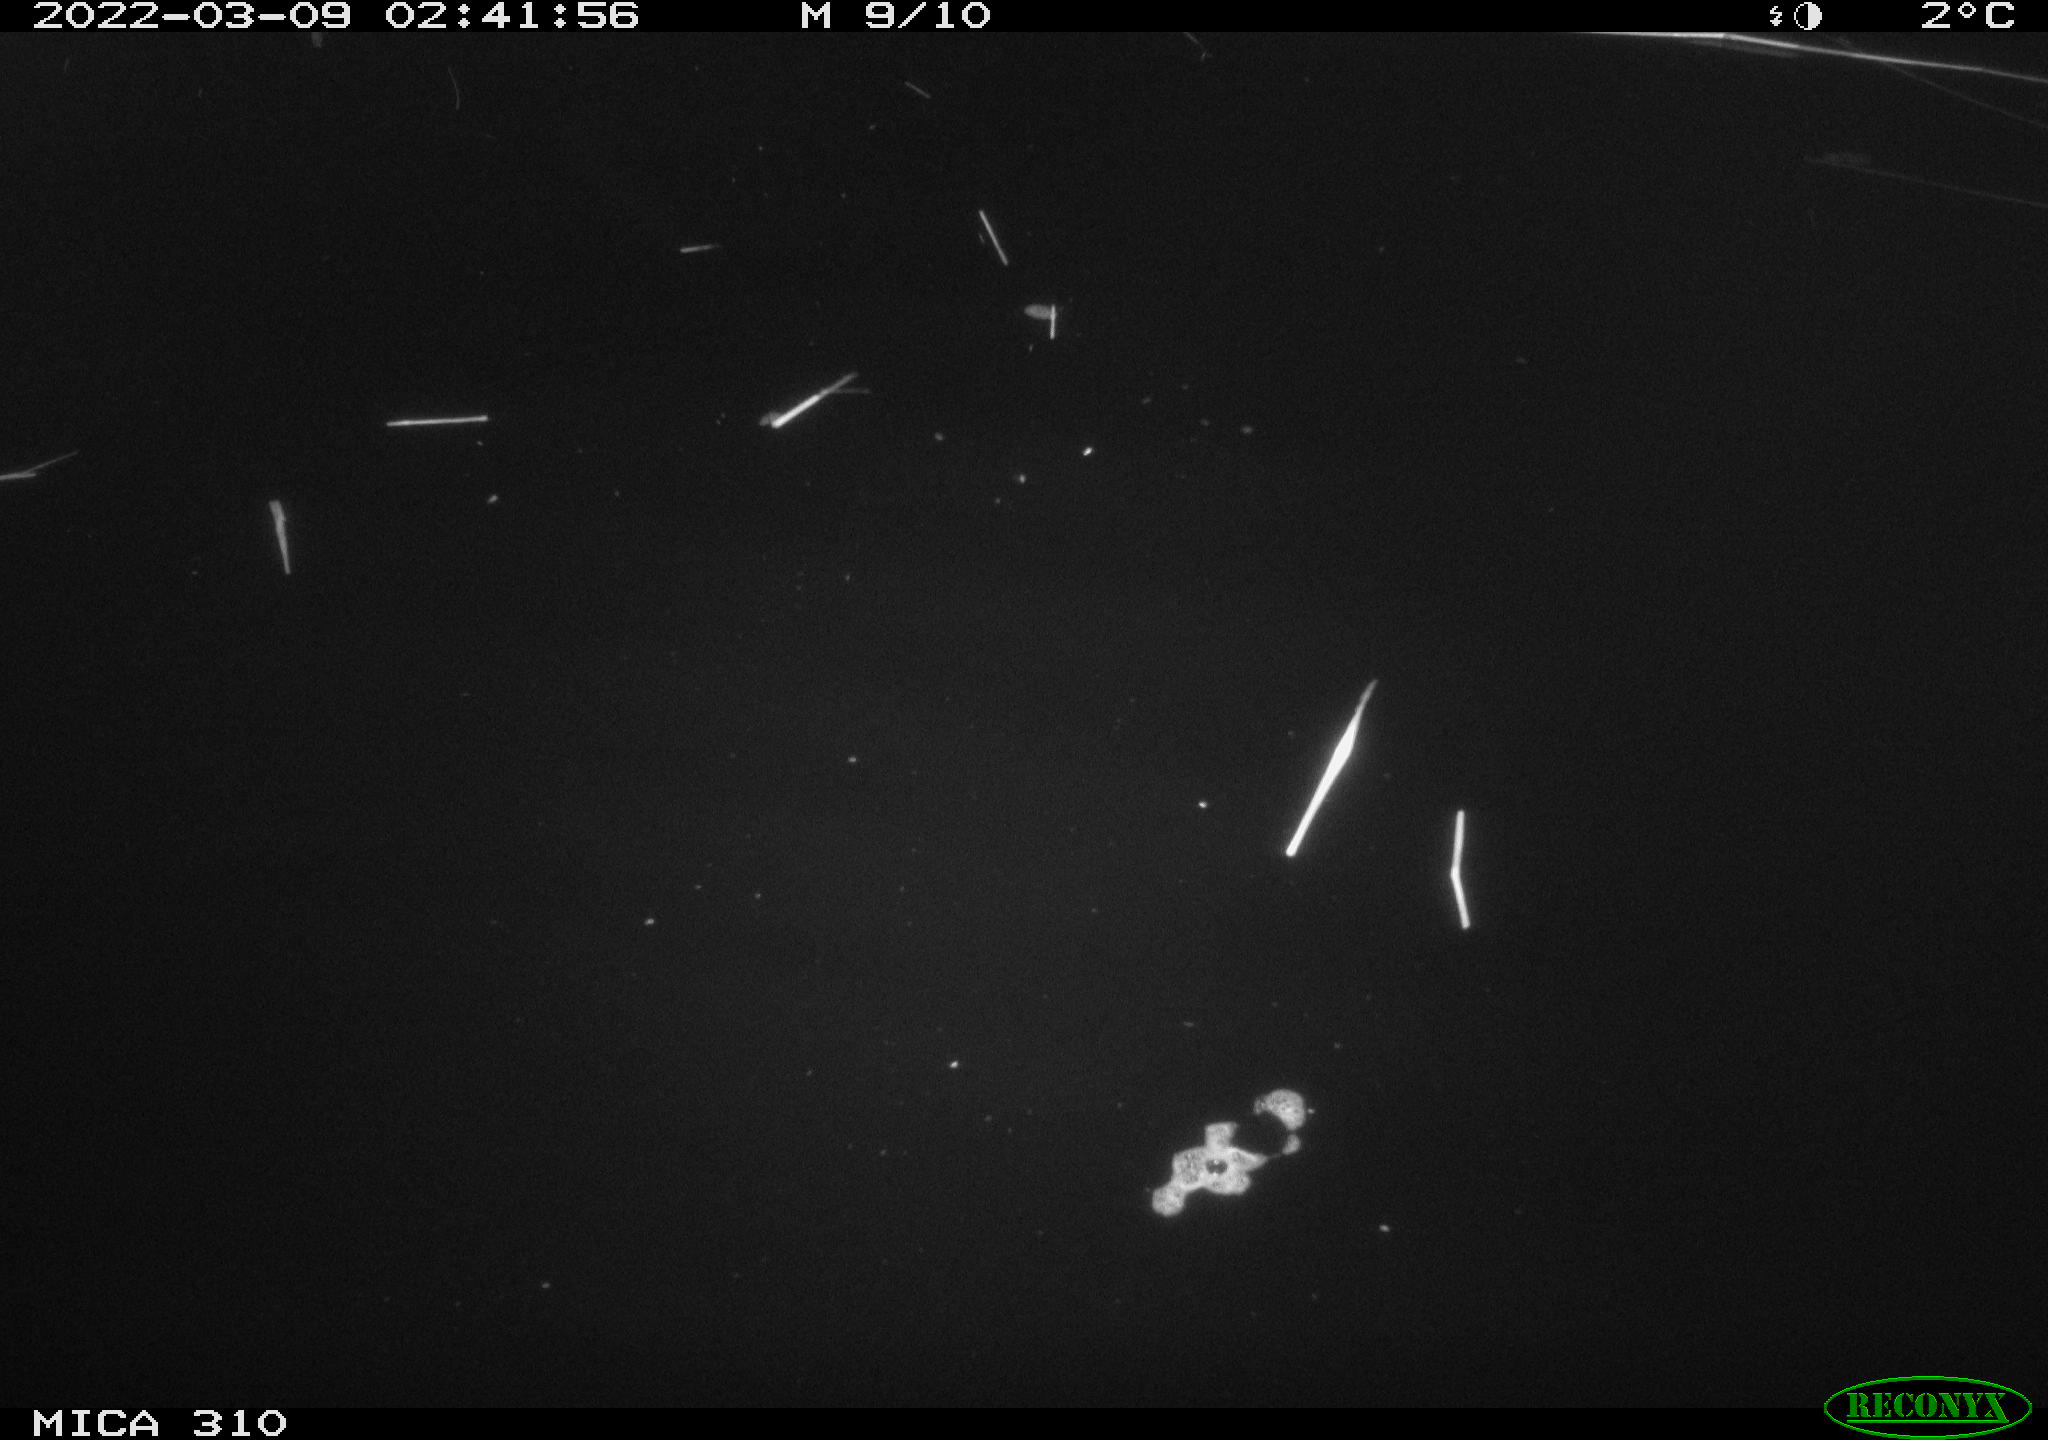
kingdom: Animalia
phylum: Chordata
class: Aves
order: Anseriformes
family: Anatidae
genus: Anas
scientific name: Anas platyrhynchos
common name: Mallard
